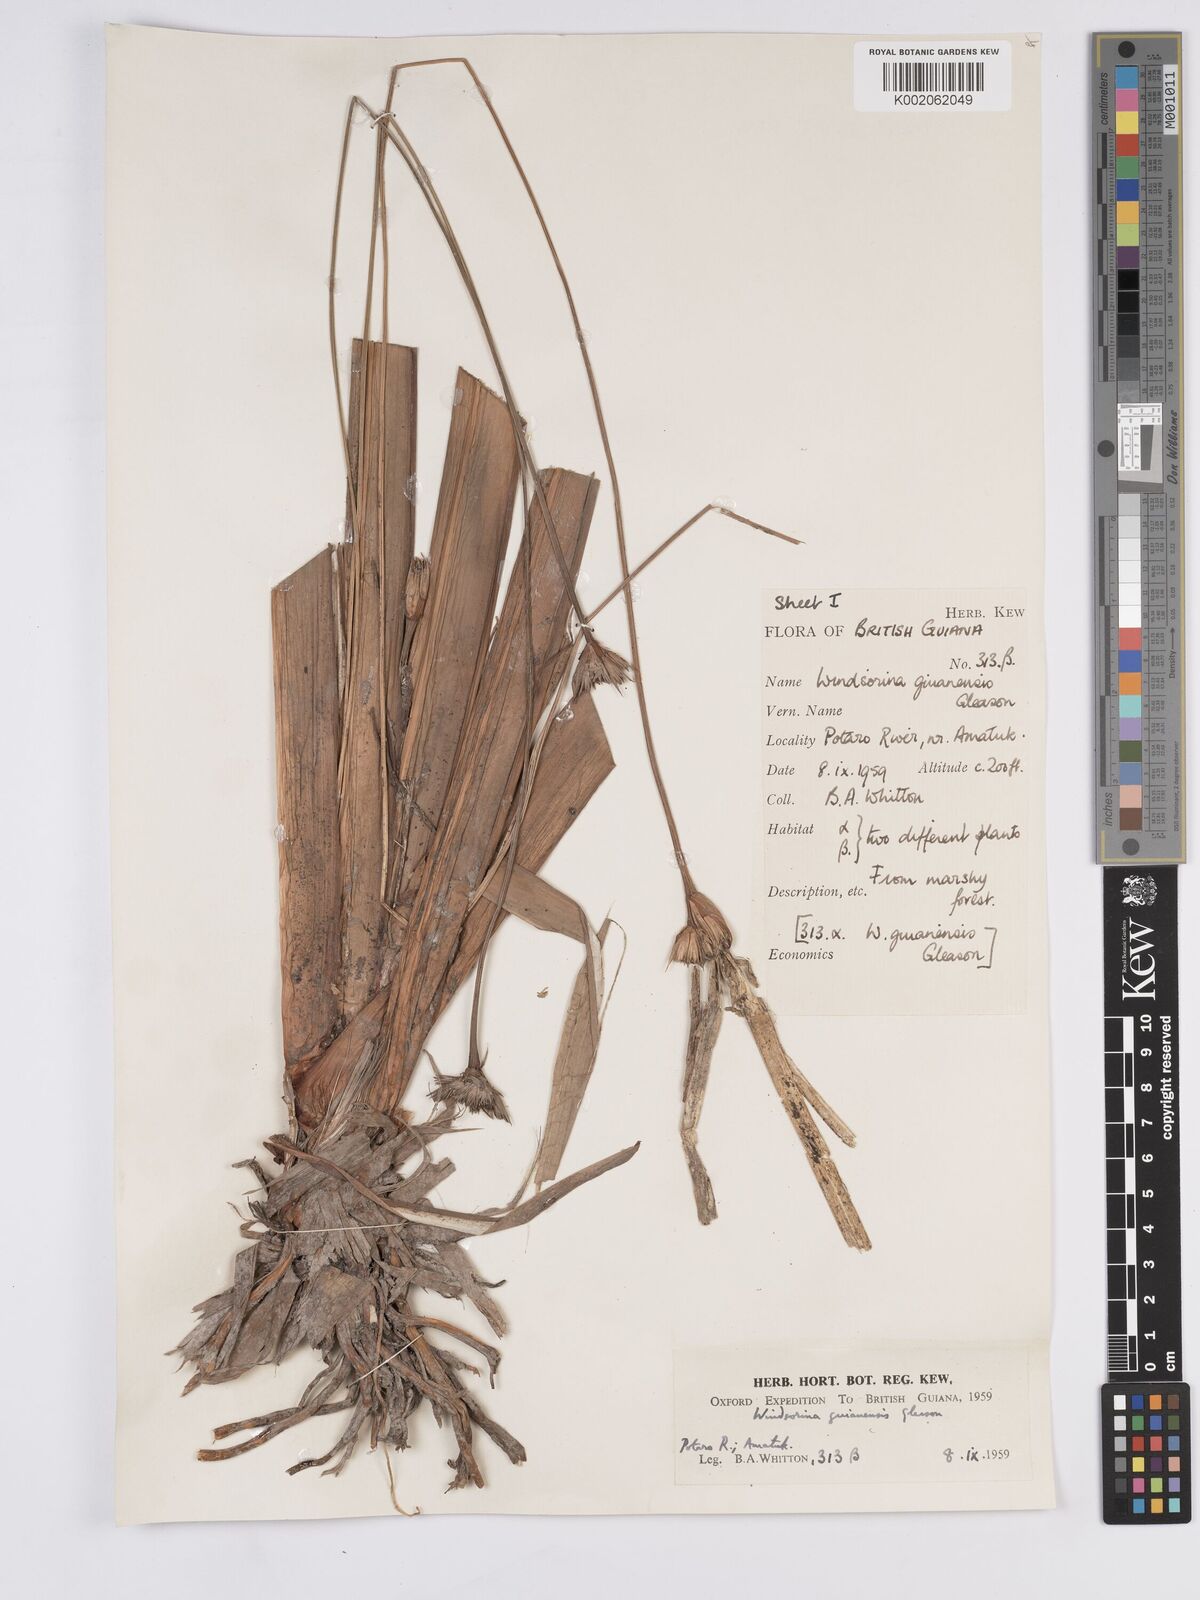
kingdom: Plantae
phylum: Tracheophyta
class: Liliopsida
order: Poales
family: Rapateaceae
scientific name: Rapateaceae
